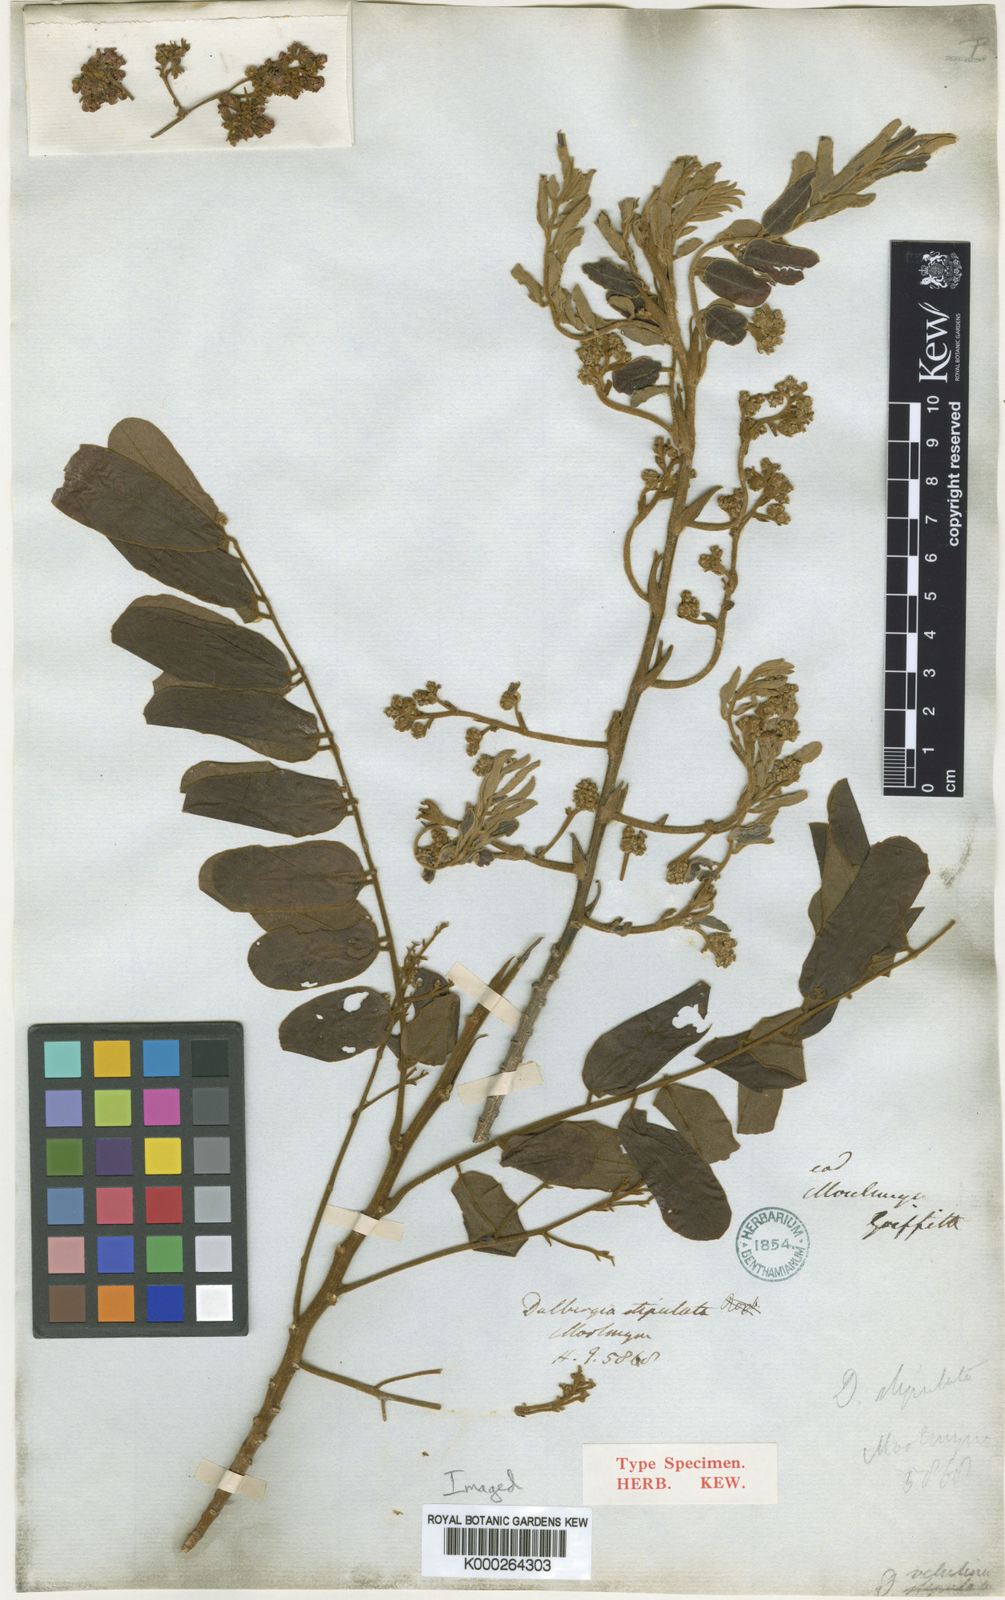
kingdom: Plantae
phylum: Tracheophyta
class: Magnoliopsida
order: Fabales
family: Fabaceae
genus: Dalbergia
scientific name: Dalbergia velutina
